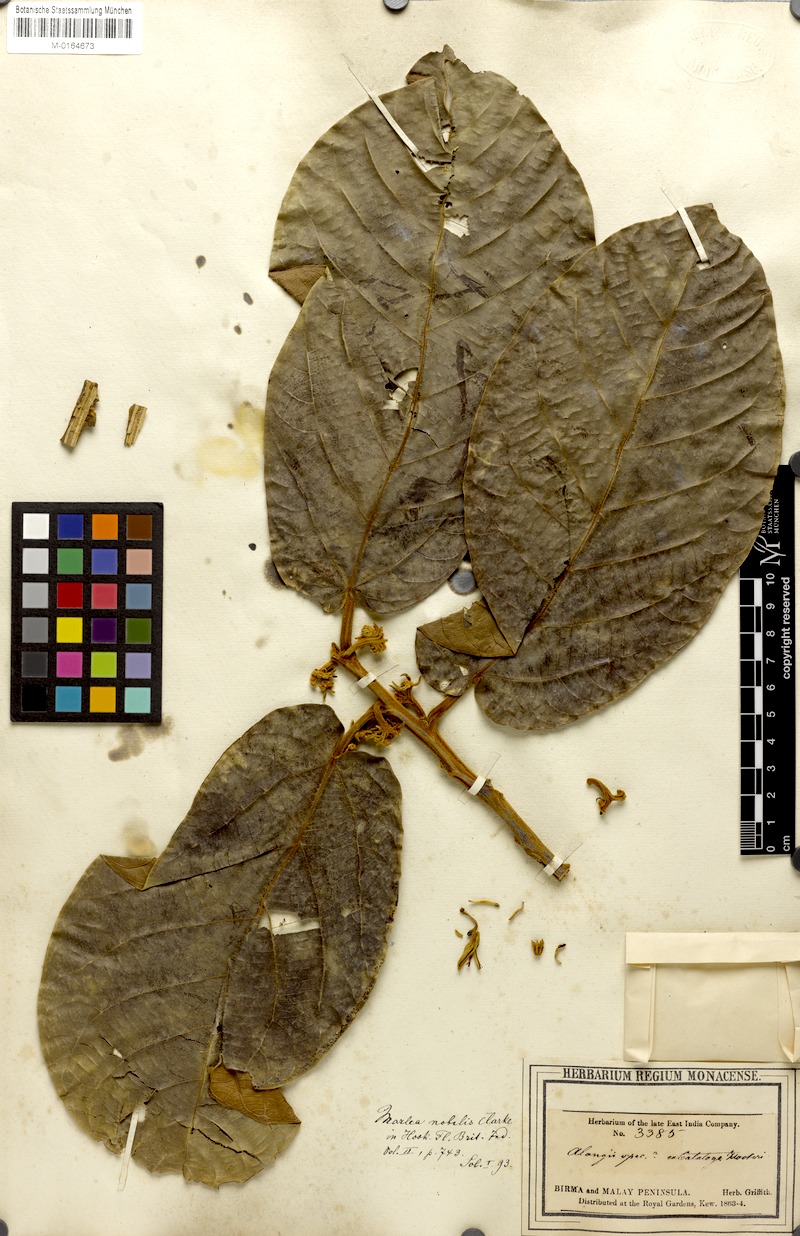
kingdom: Plantae
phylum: Tracheophyta
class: Magnoliopsida
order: Cornales
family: Cornaceae
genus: Alangium
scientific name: Alangium nobile
